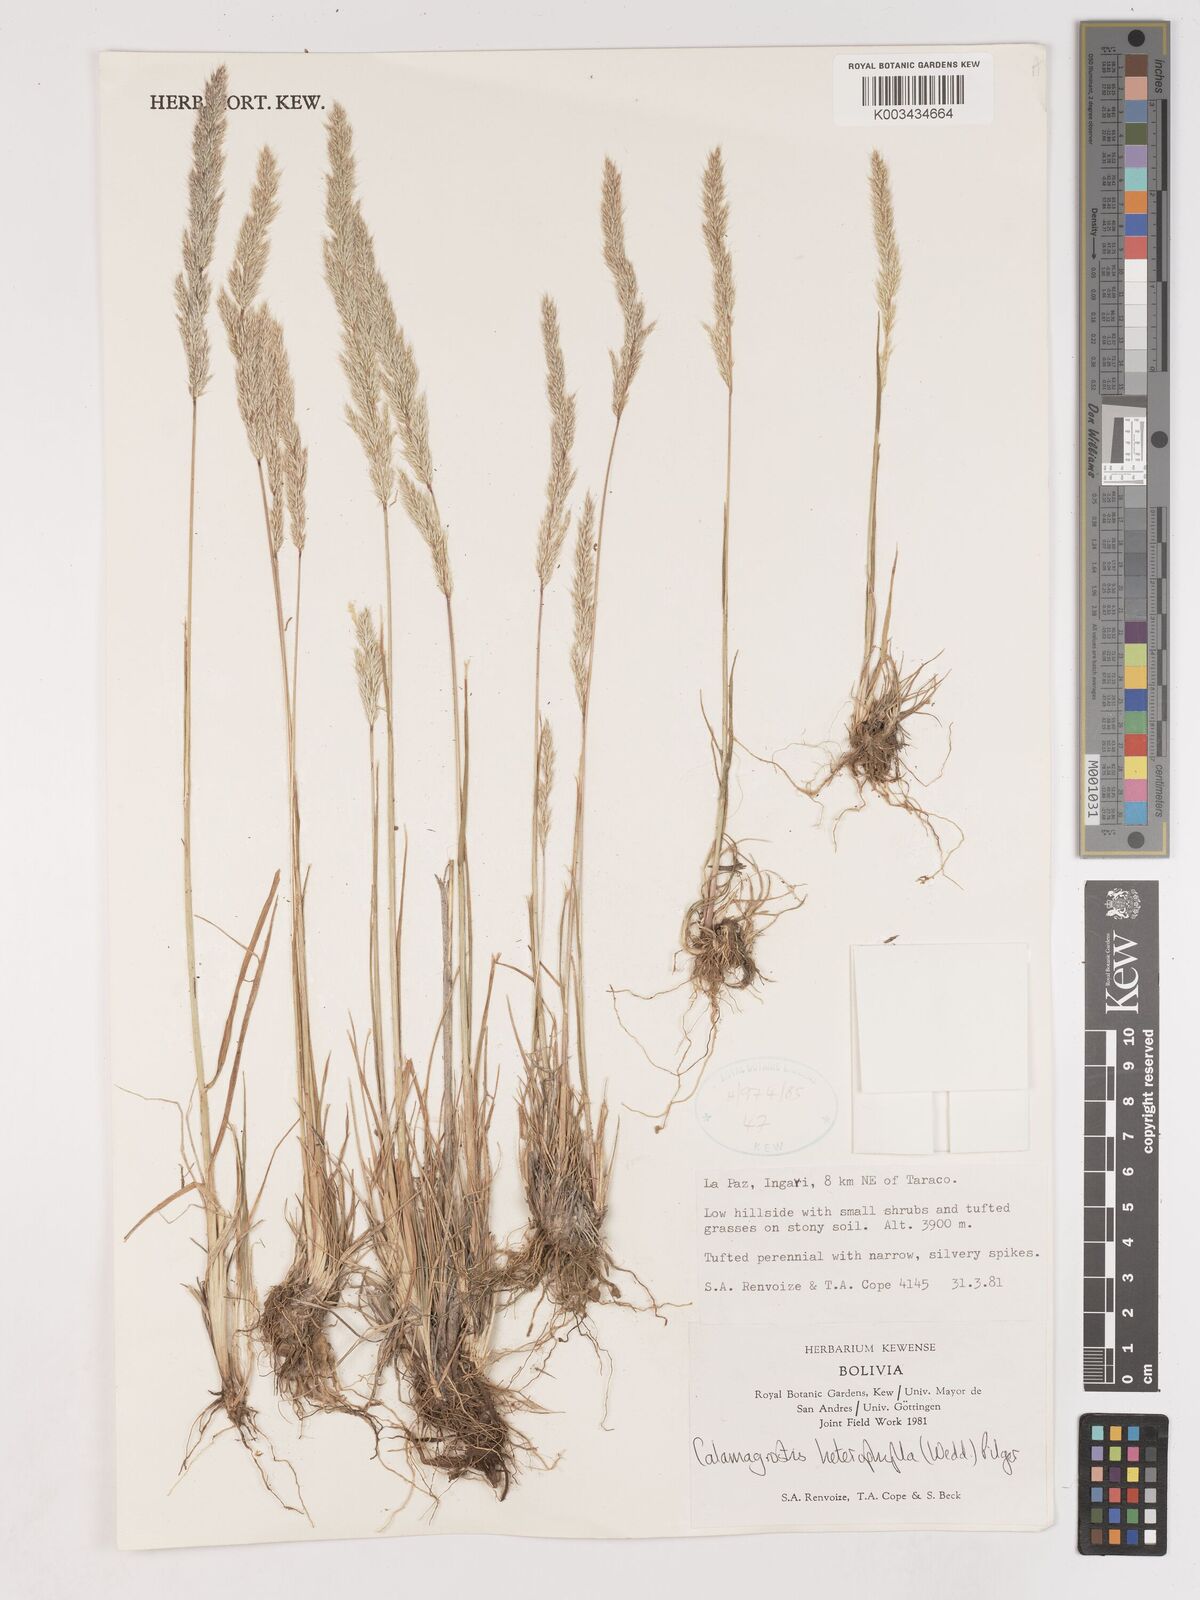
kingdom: Plantae
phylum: Tracheophyta
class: Liliopsida
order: Poales
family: Poaceae
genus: Cinnagrostis
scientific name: Cinnagrostis heterophylla
